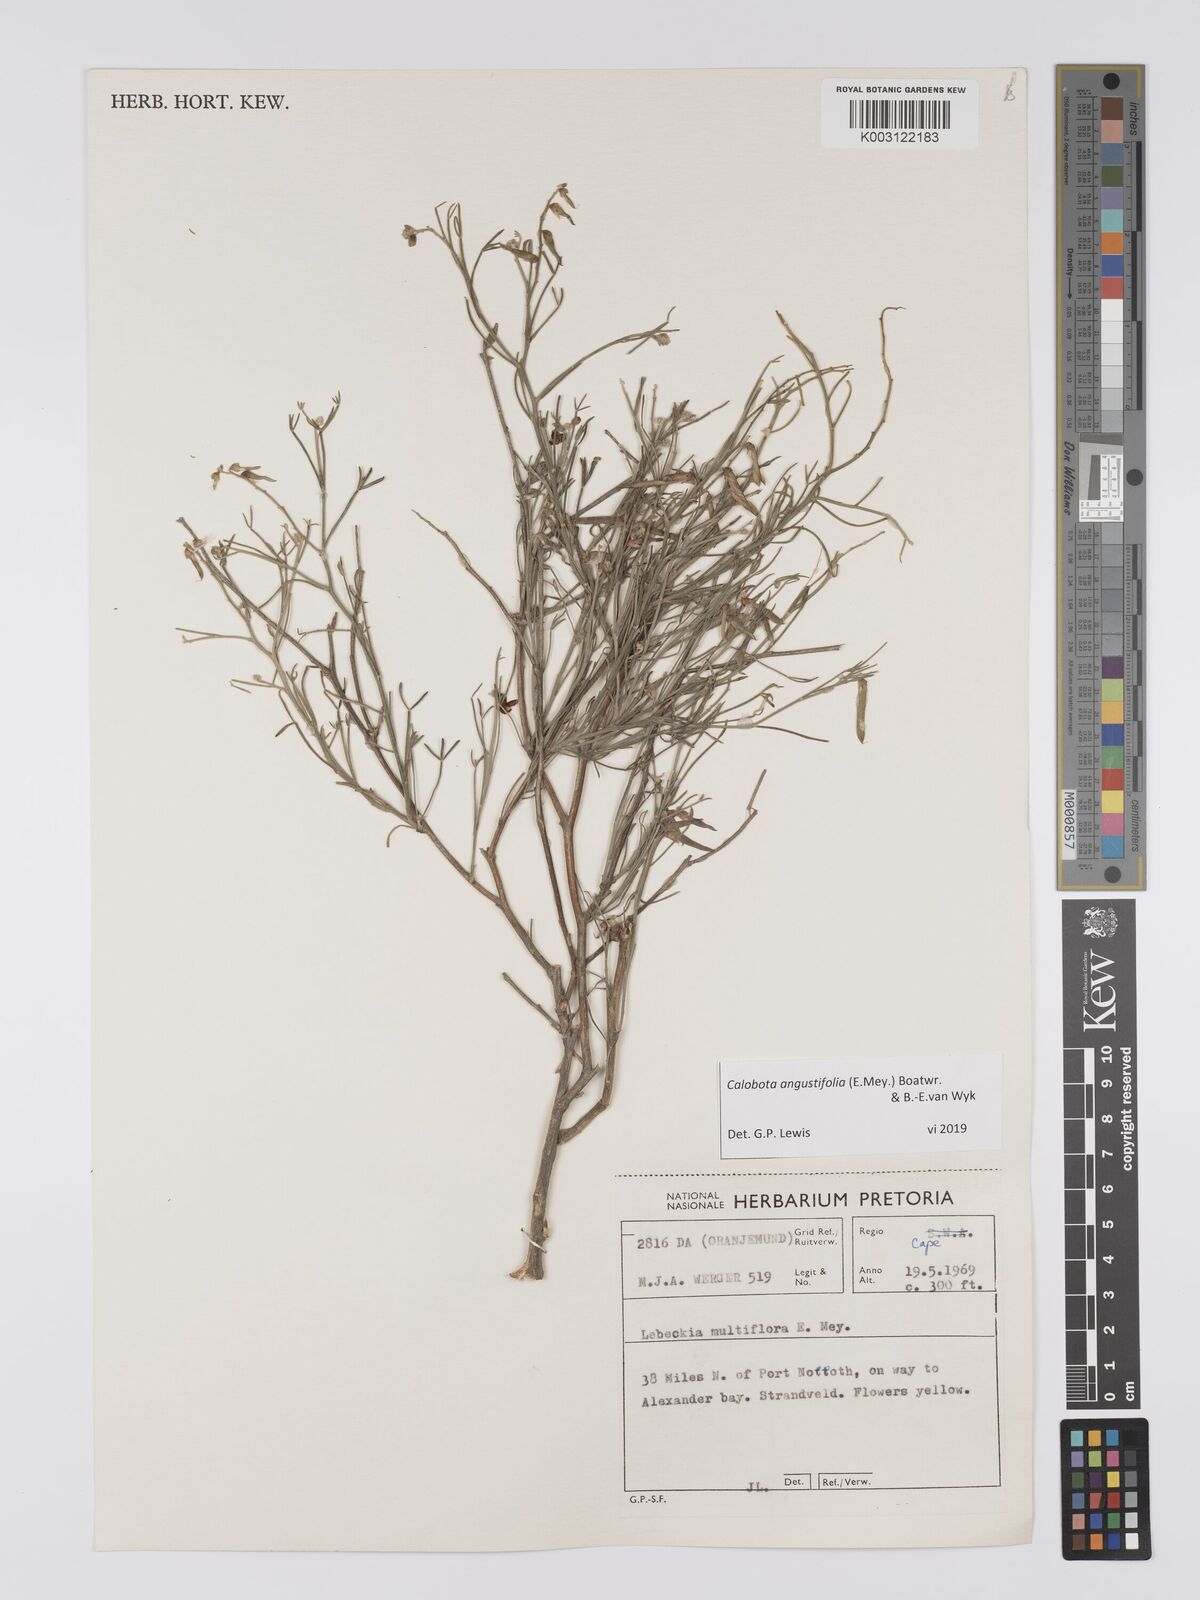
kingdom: Plantae
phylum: Tracheophyta
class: Magnoliopsida
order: Fabales
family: Fabaceae
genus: Calobota
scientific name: Calobota angustifolia
